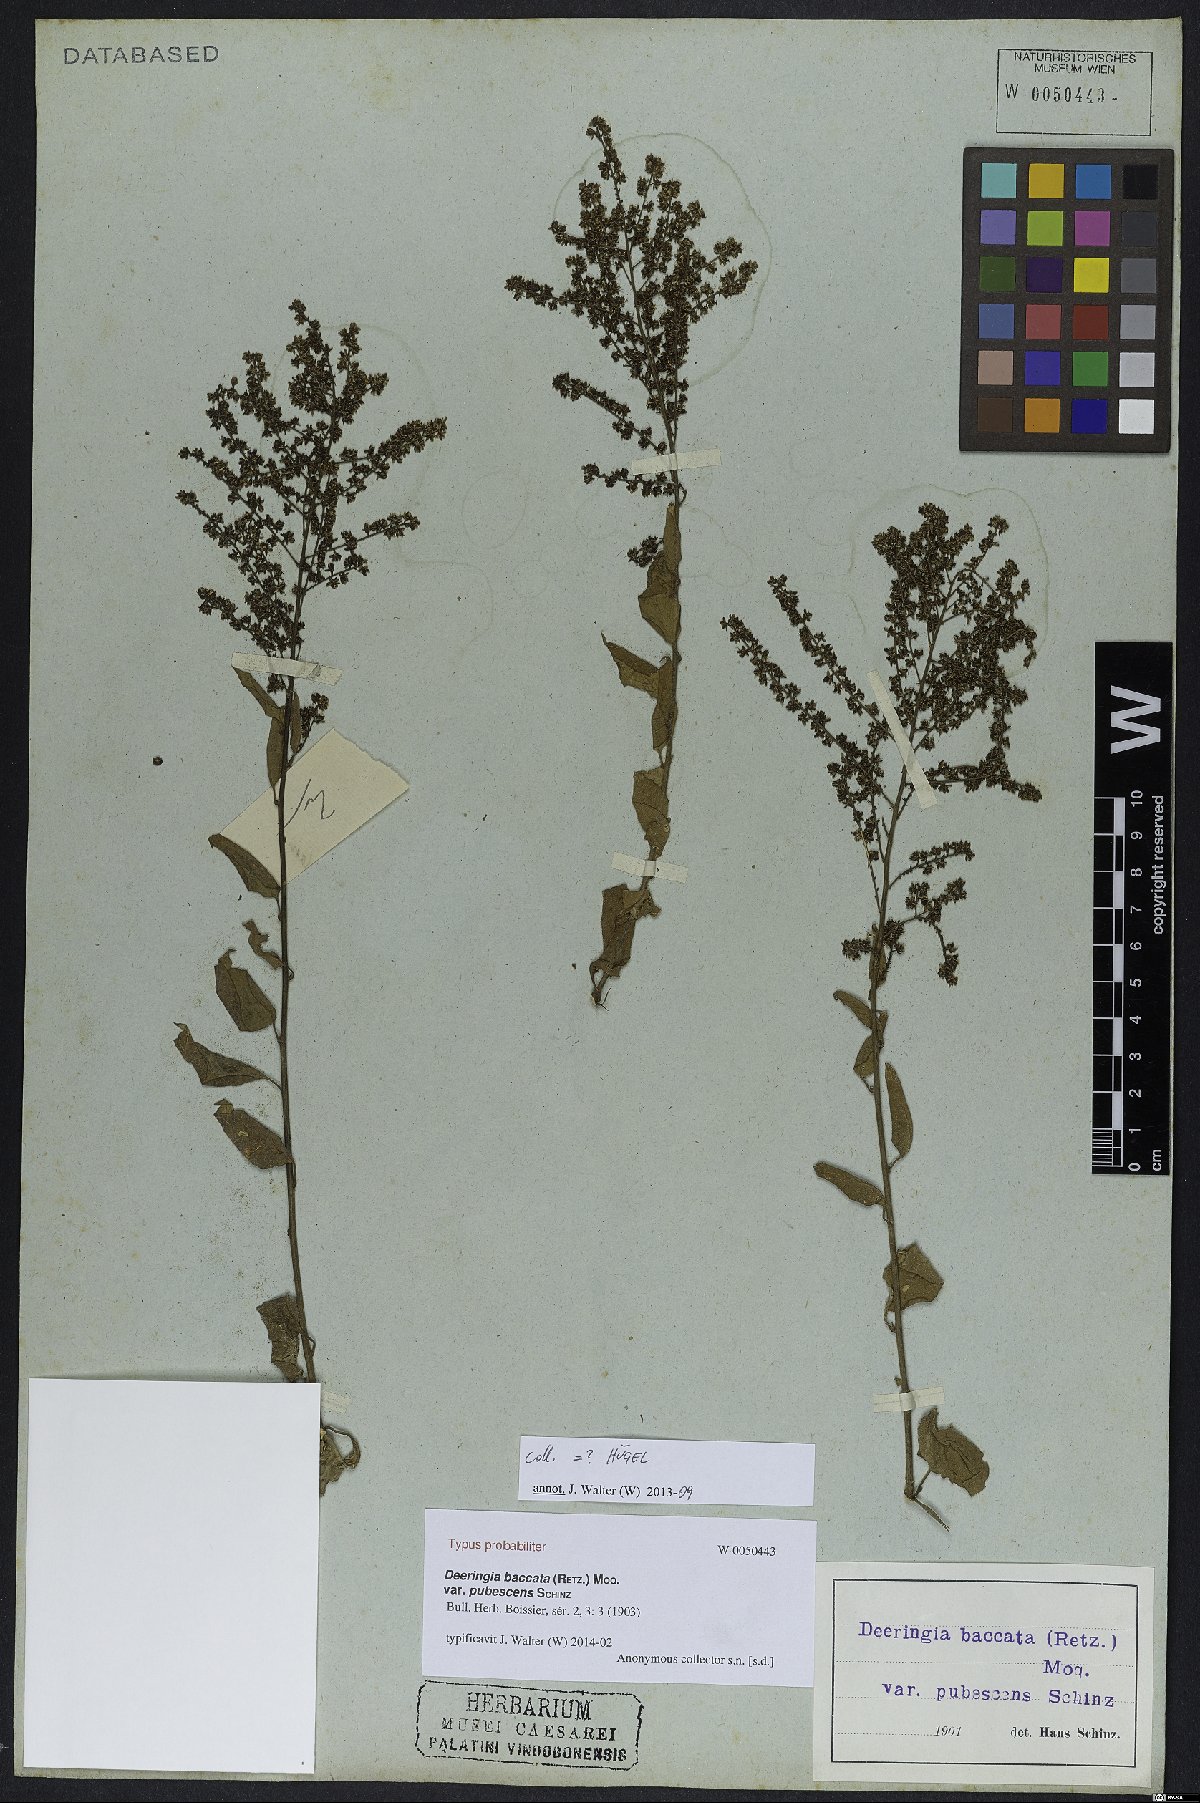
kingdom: Plantae
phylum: Tracheophyta
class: Magnoliopsida
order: Caryophyllales
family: Amaranthaceae
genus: Deeringia
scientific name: Deeringia amaranthoides
